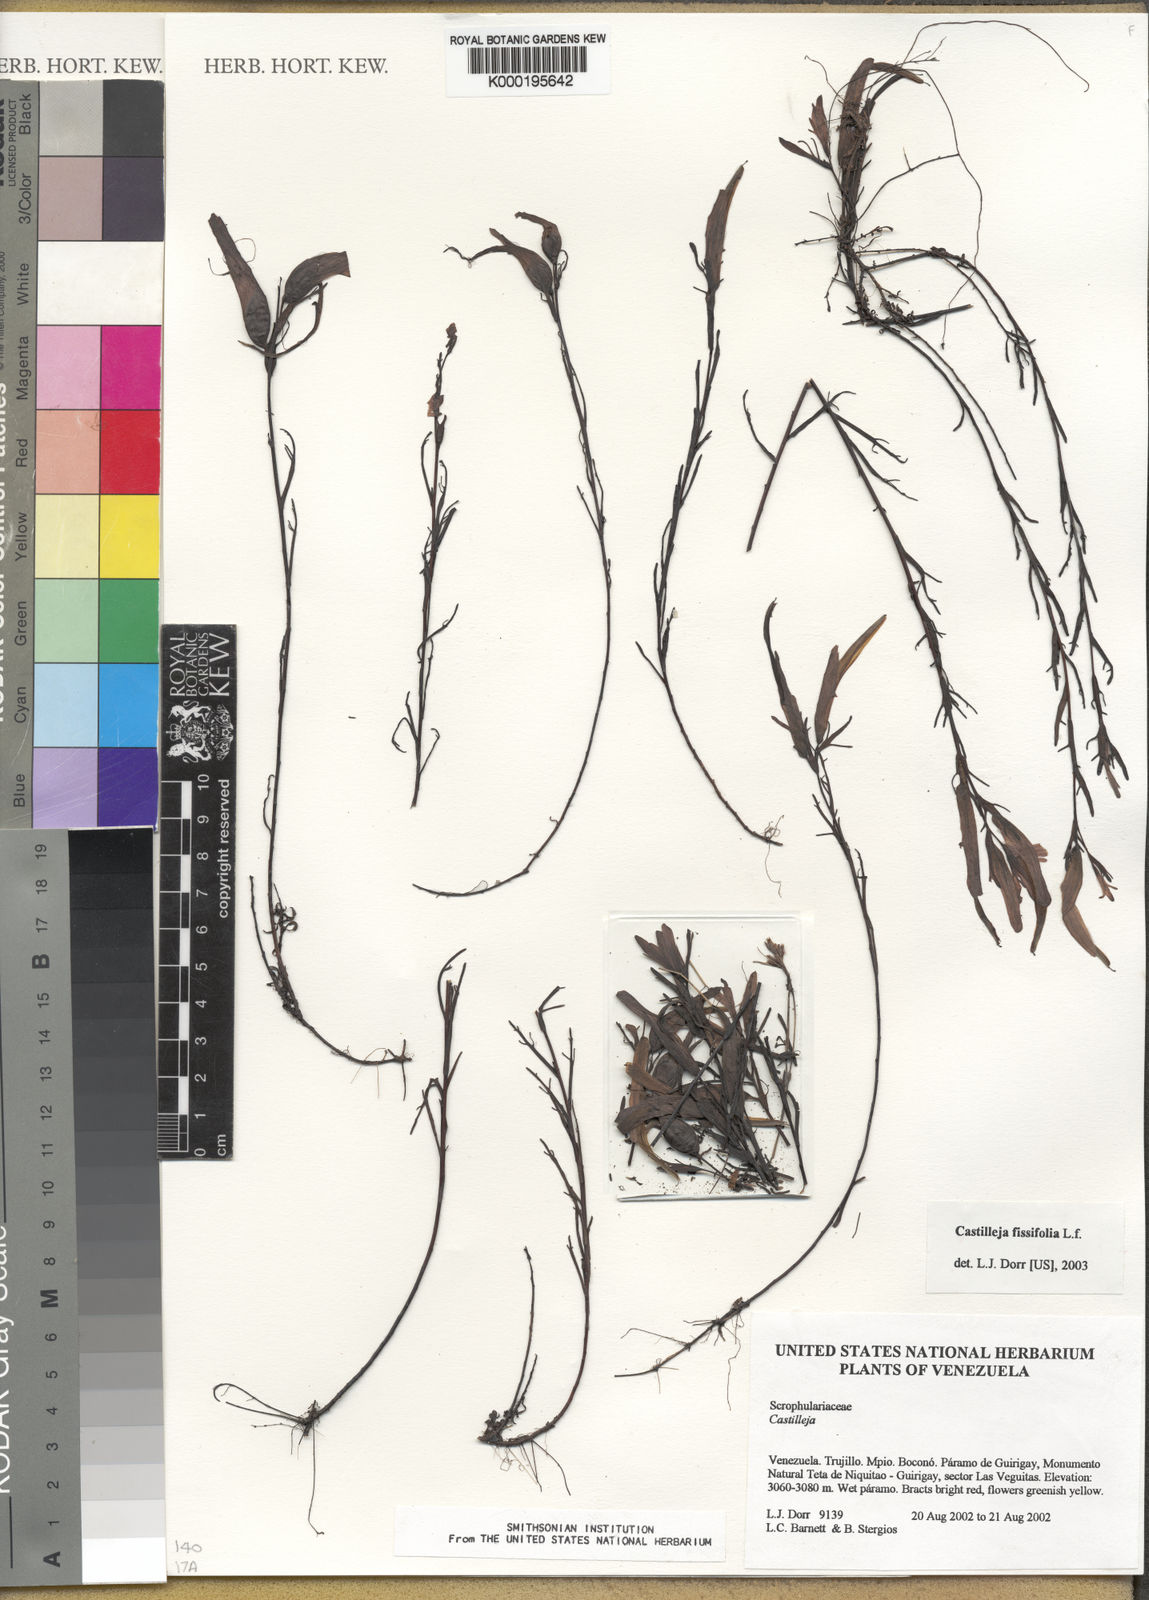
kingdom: Plantae
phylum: Tracheophyta
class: Magnoliopsida
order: Lamiales
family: Orobanchaceae
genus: Castilleja
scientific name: Castilleja exigua
